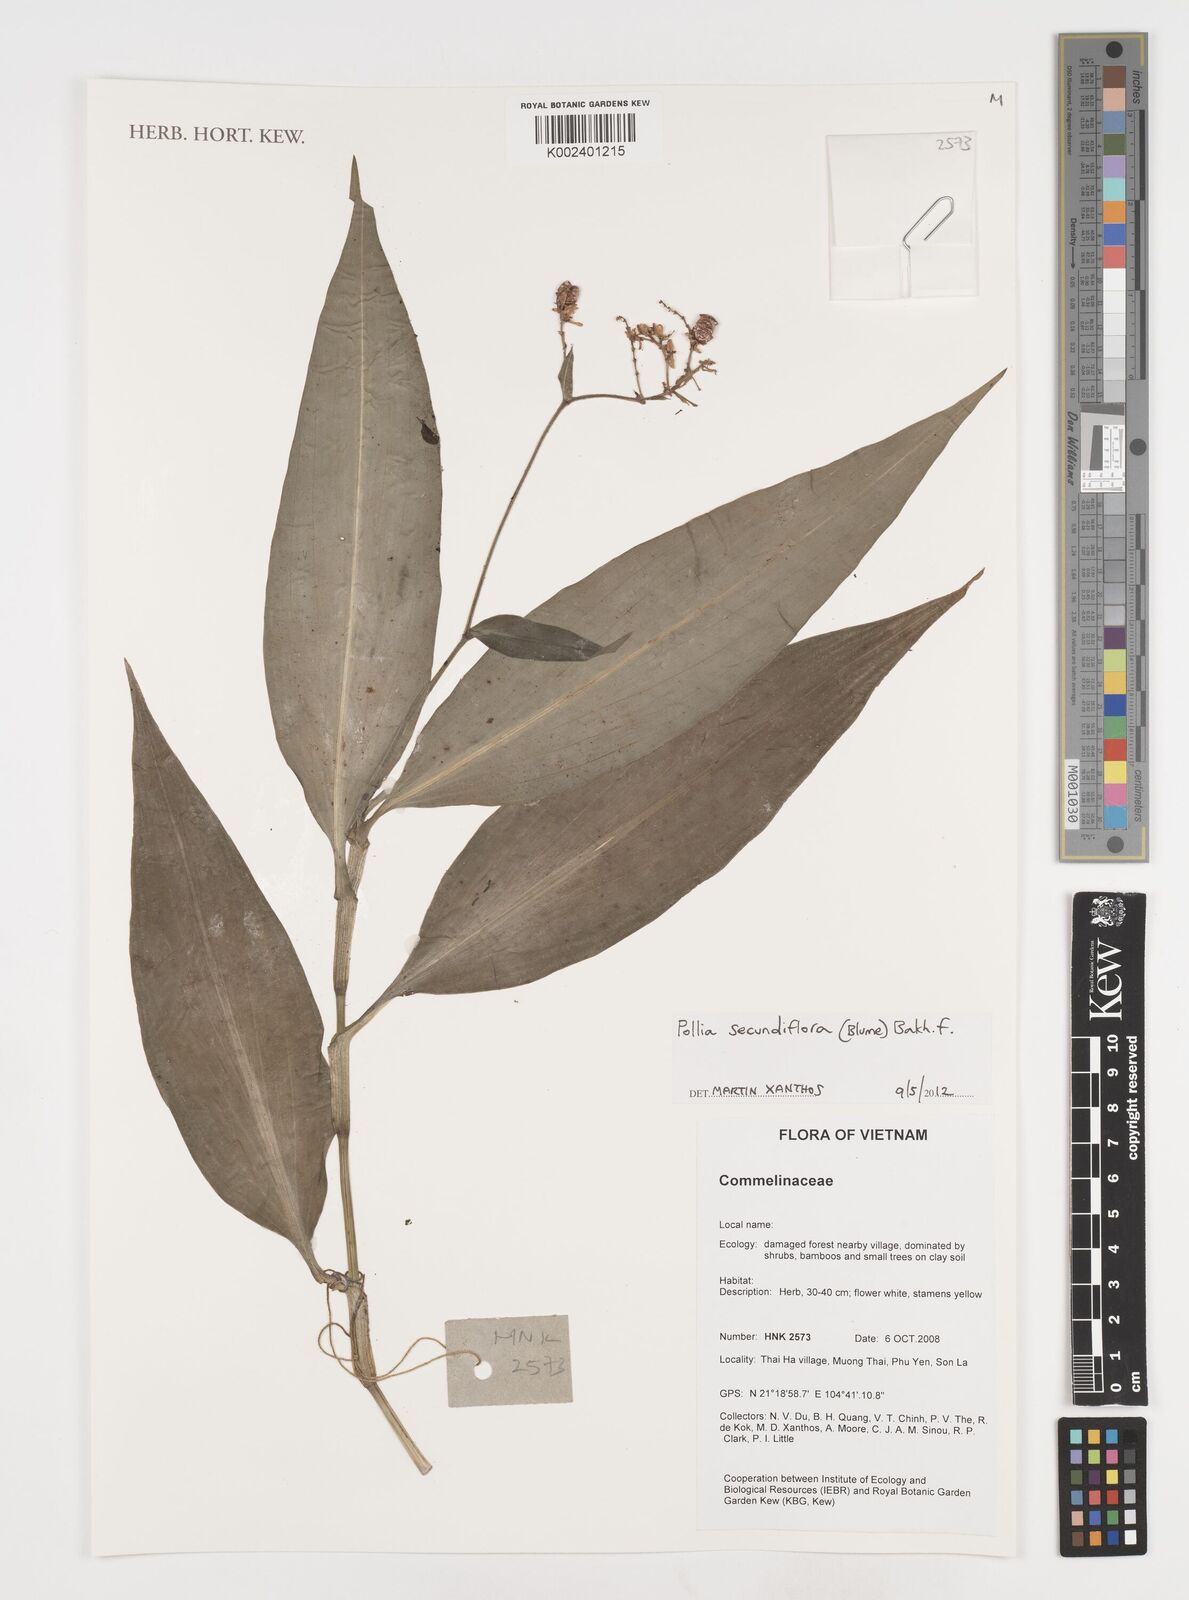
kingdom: Plantae
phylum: Tracheophyta
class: Liliopsida
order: Commelinales
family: Commelinaceae
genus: Pollia
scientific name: Pollia secundiflora
